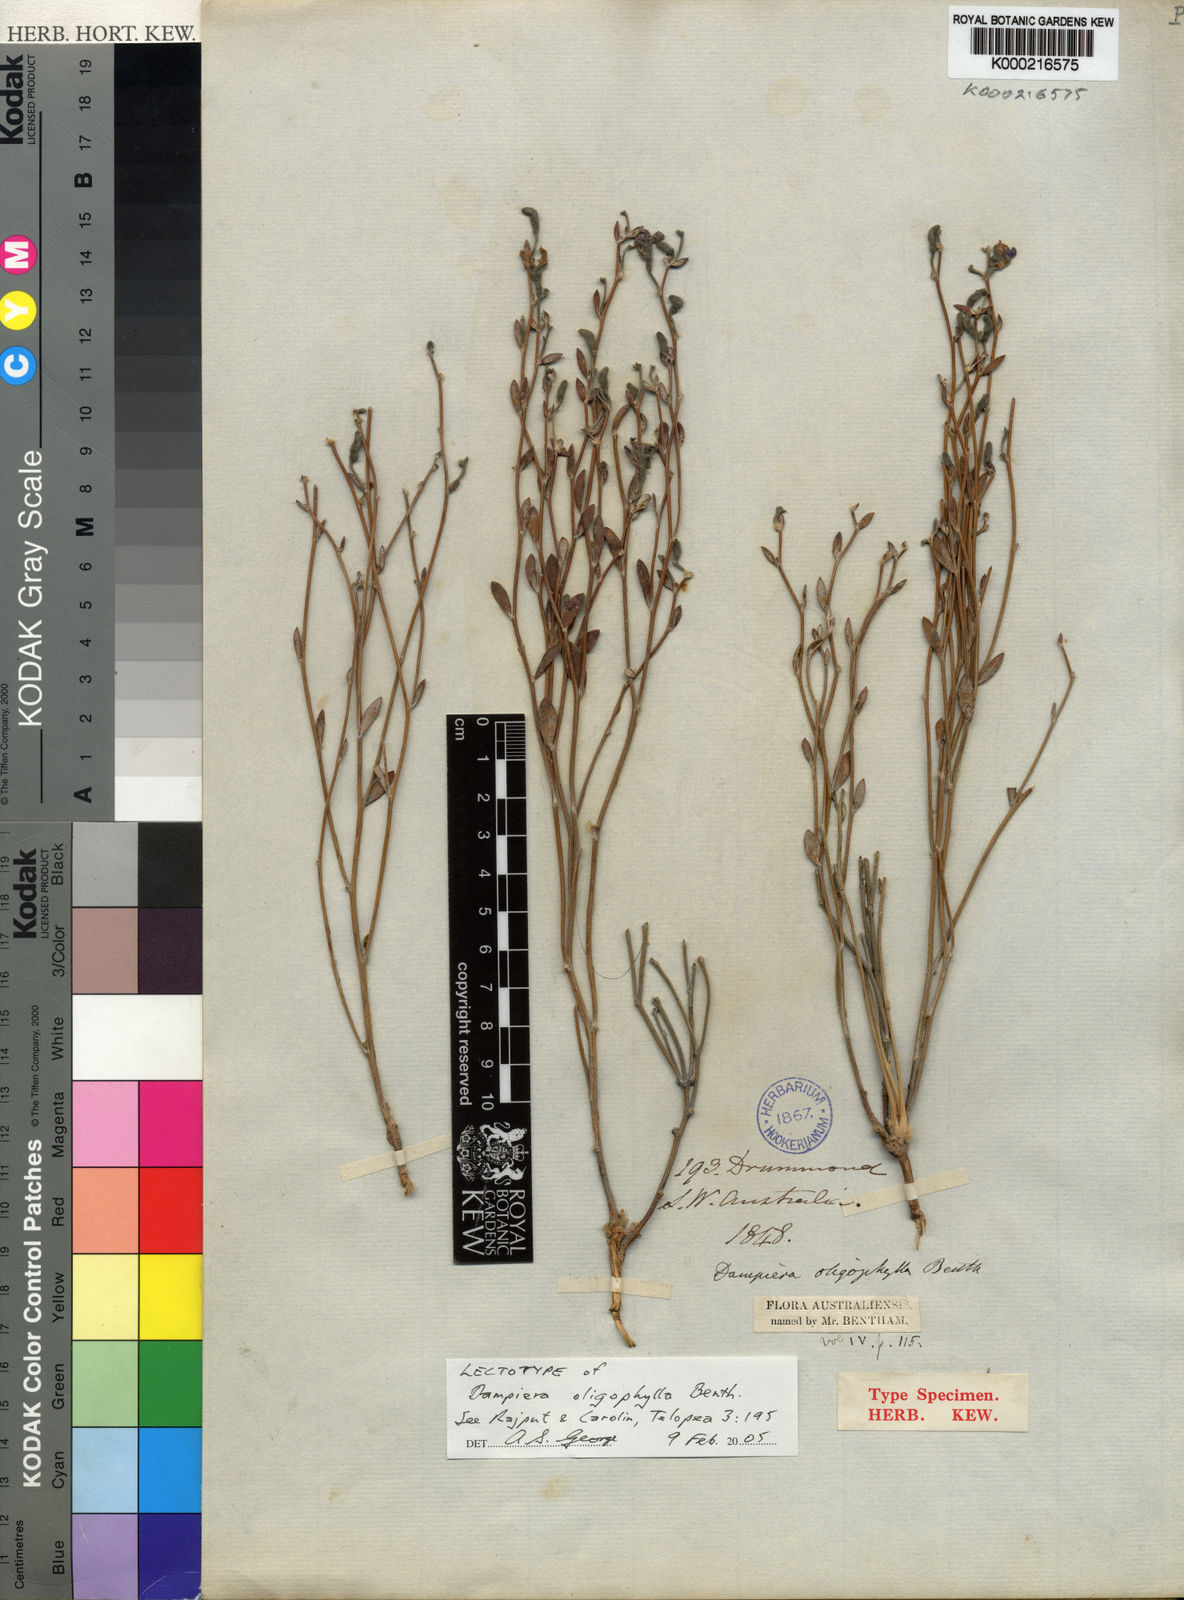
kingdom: Plantae
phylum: Tracheophyta
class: Magnoliopsida
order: Asterales
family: Goodeniaceae
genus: Dampiera
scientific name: Dampiera oligophylla
